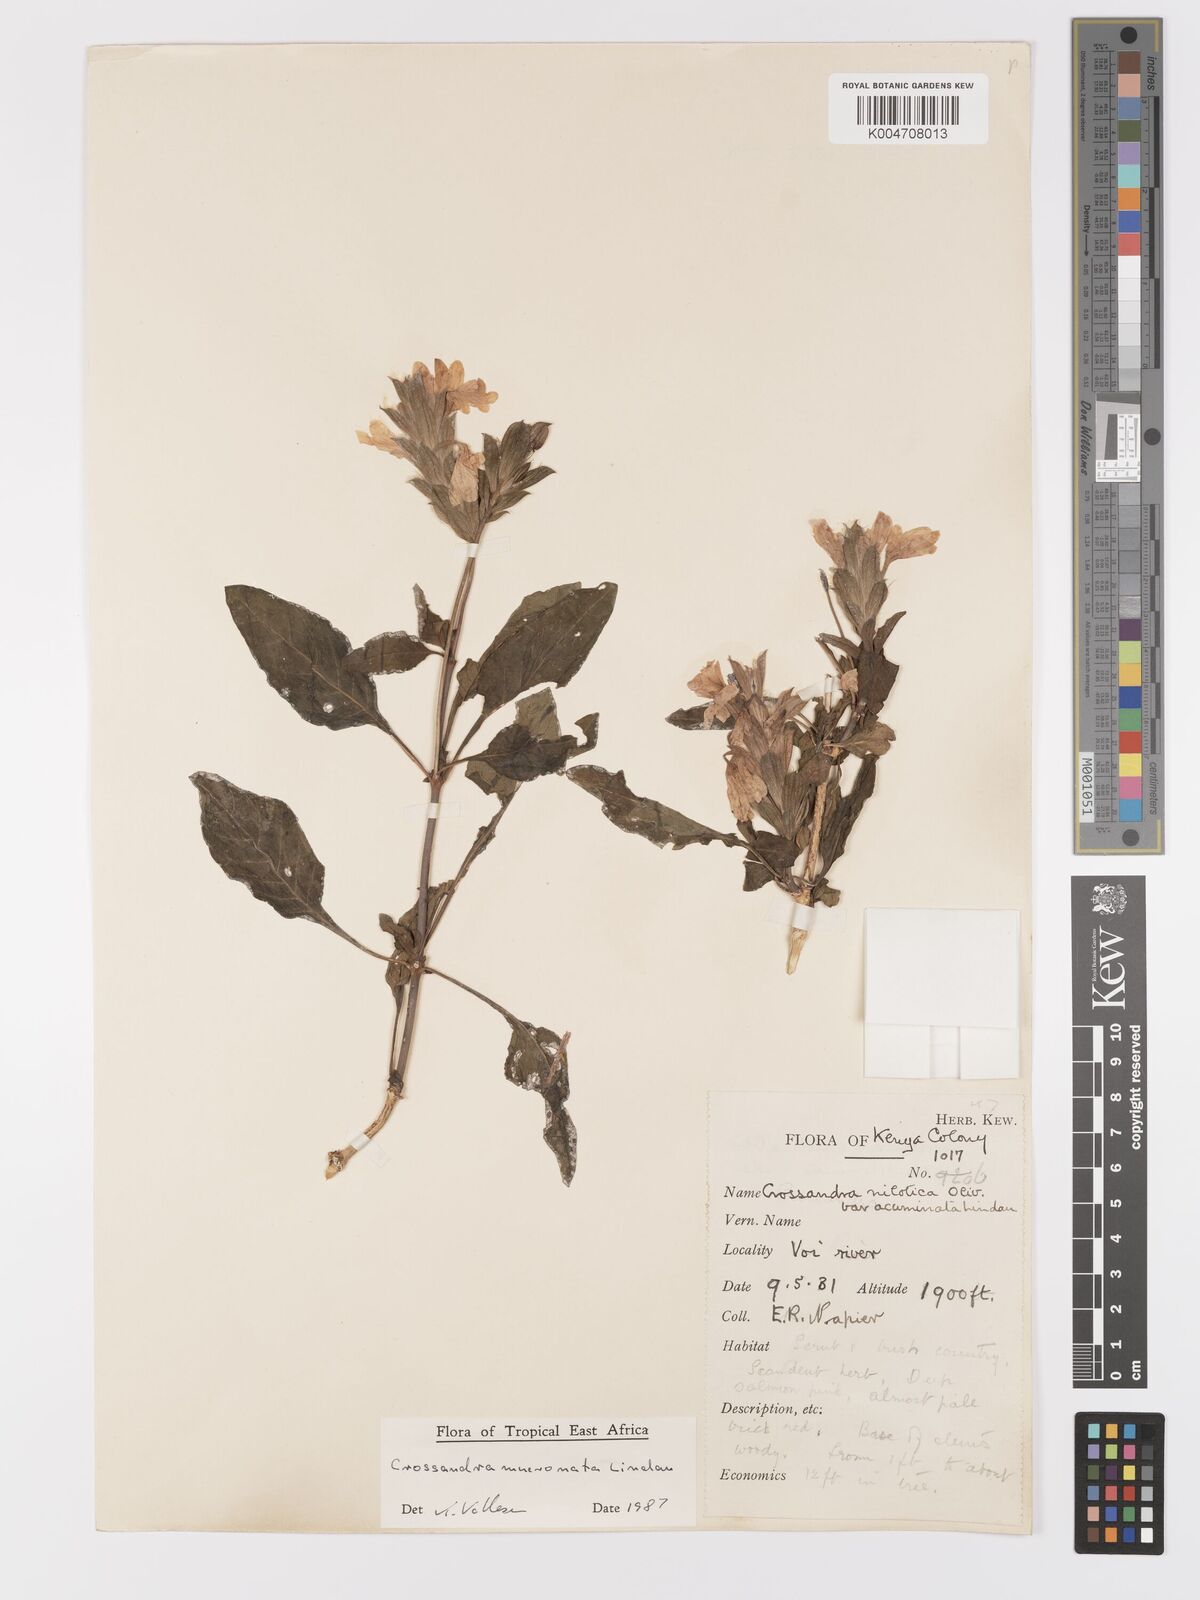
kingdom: Plantae
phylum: Tracheophyta
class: Magnoliopsida
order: Lamiales
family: Acanthaceae
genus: Crossandra
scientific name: Crossandra mucronata
